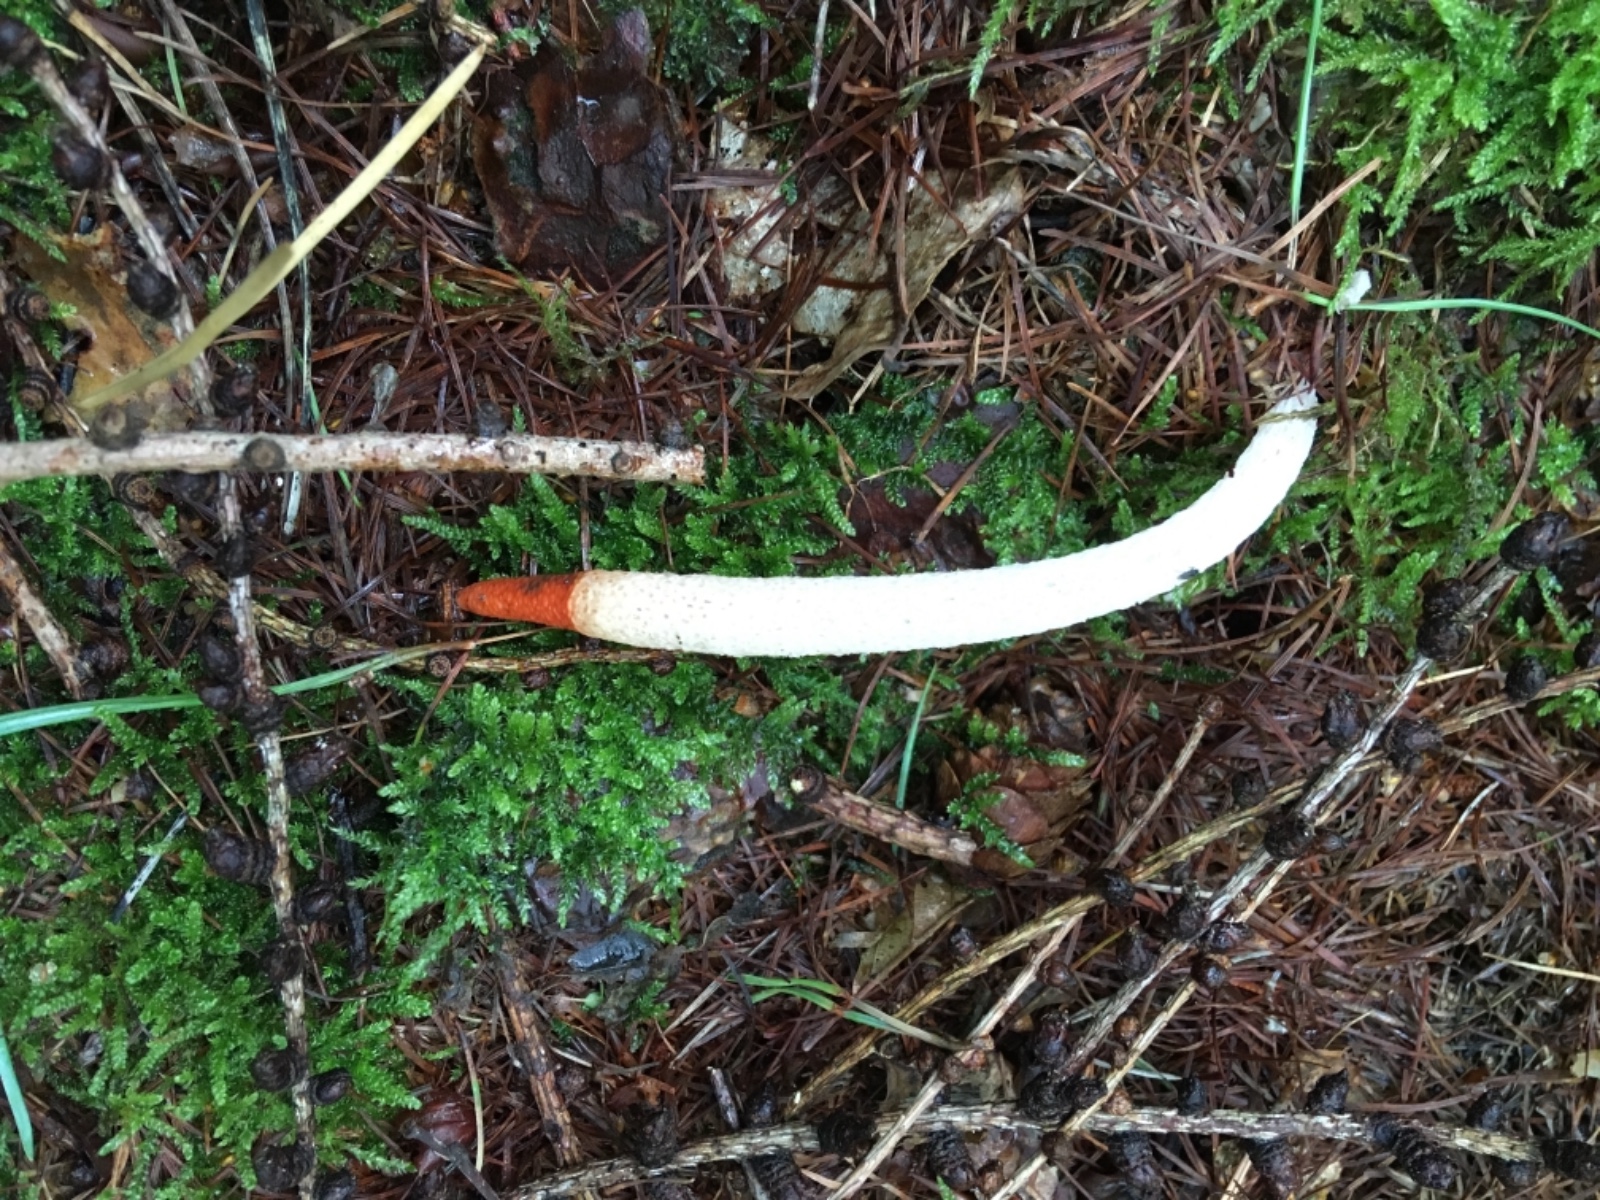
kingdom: Fungi
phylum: Basidiomycota
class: Agaricomycetes
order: Phallales
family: Phallaceae
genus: Mutinus
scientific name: Mutinus caninus
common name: hunde-stinksvamp
